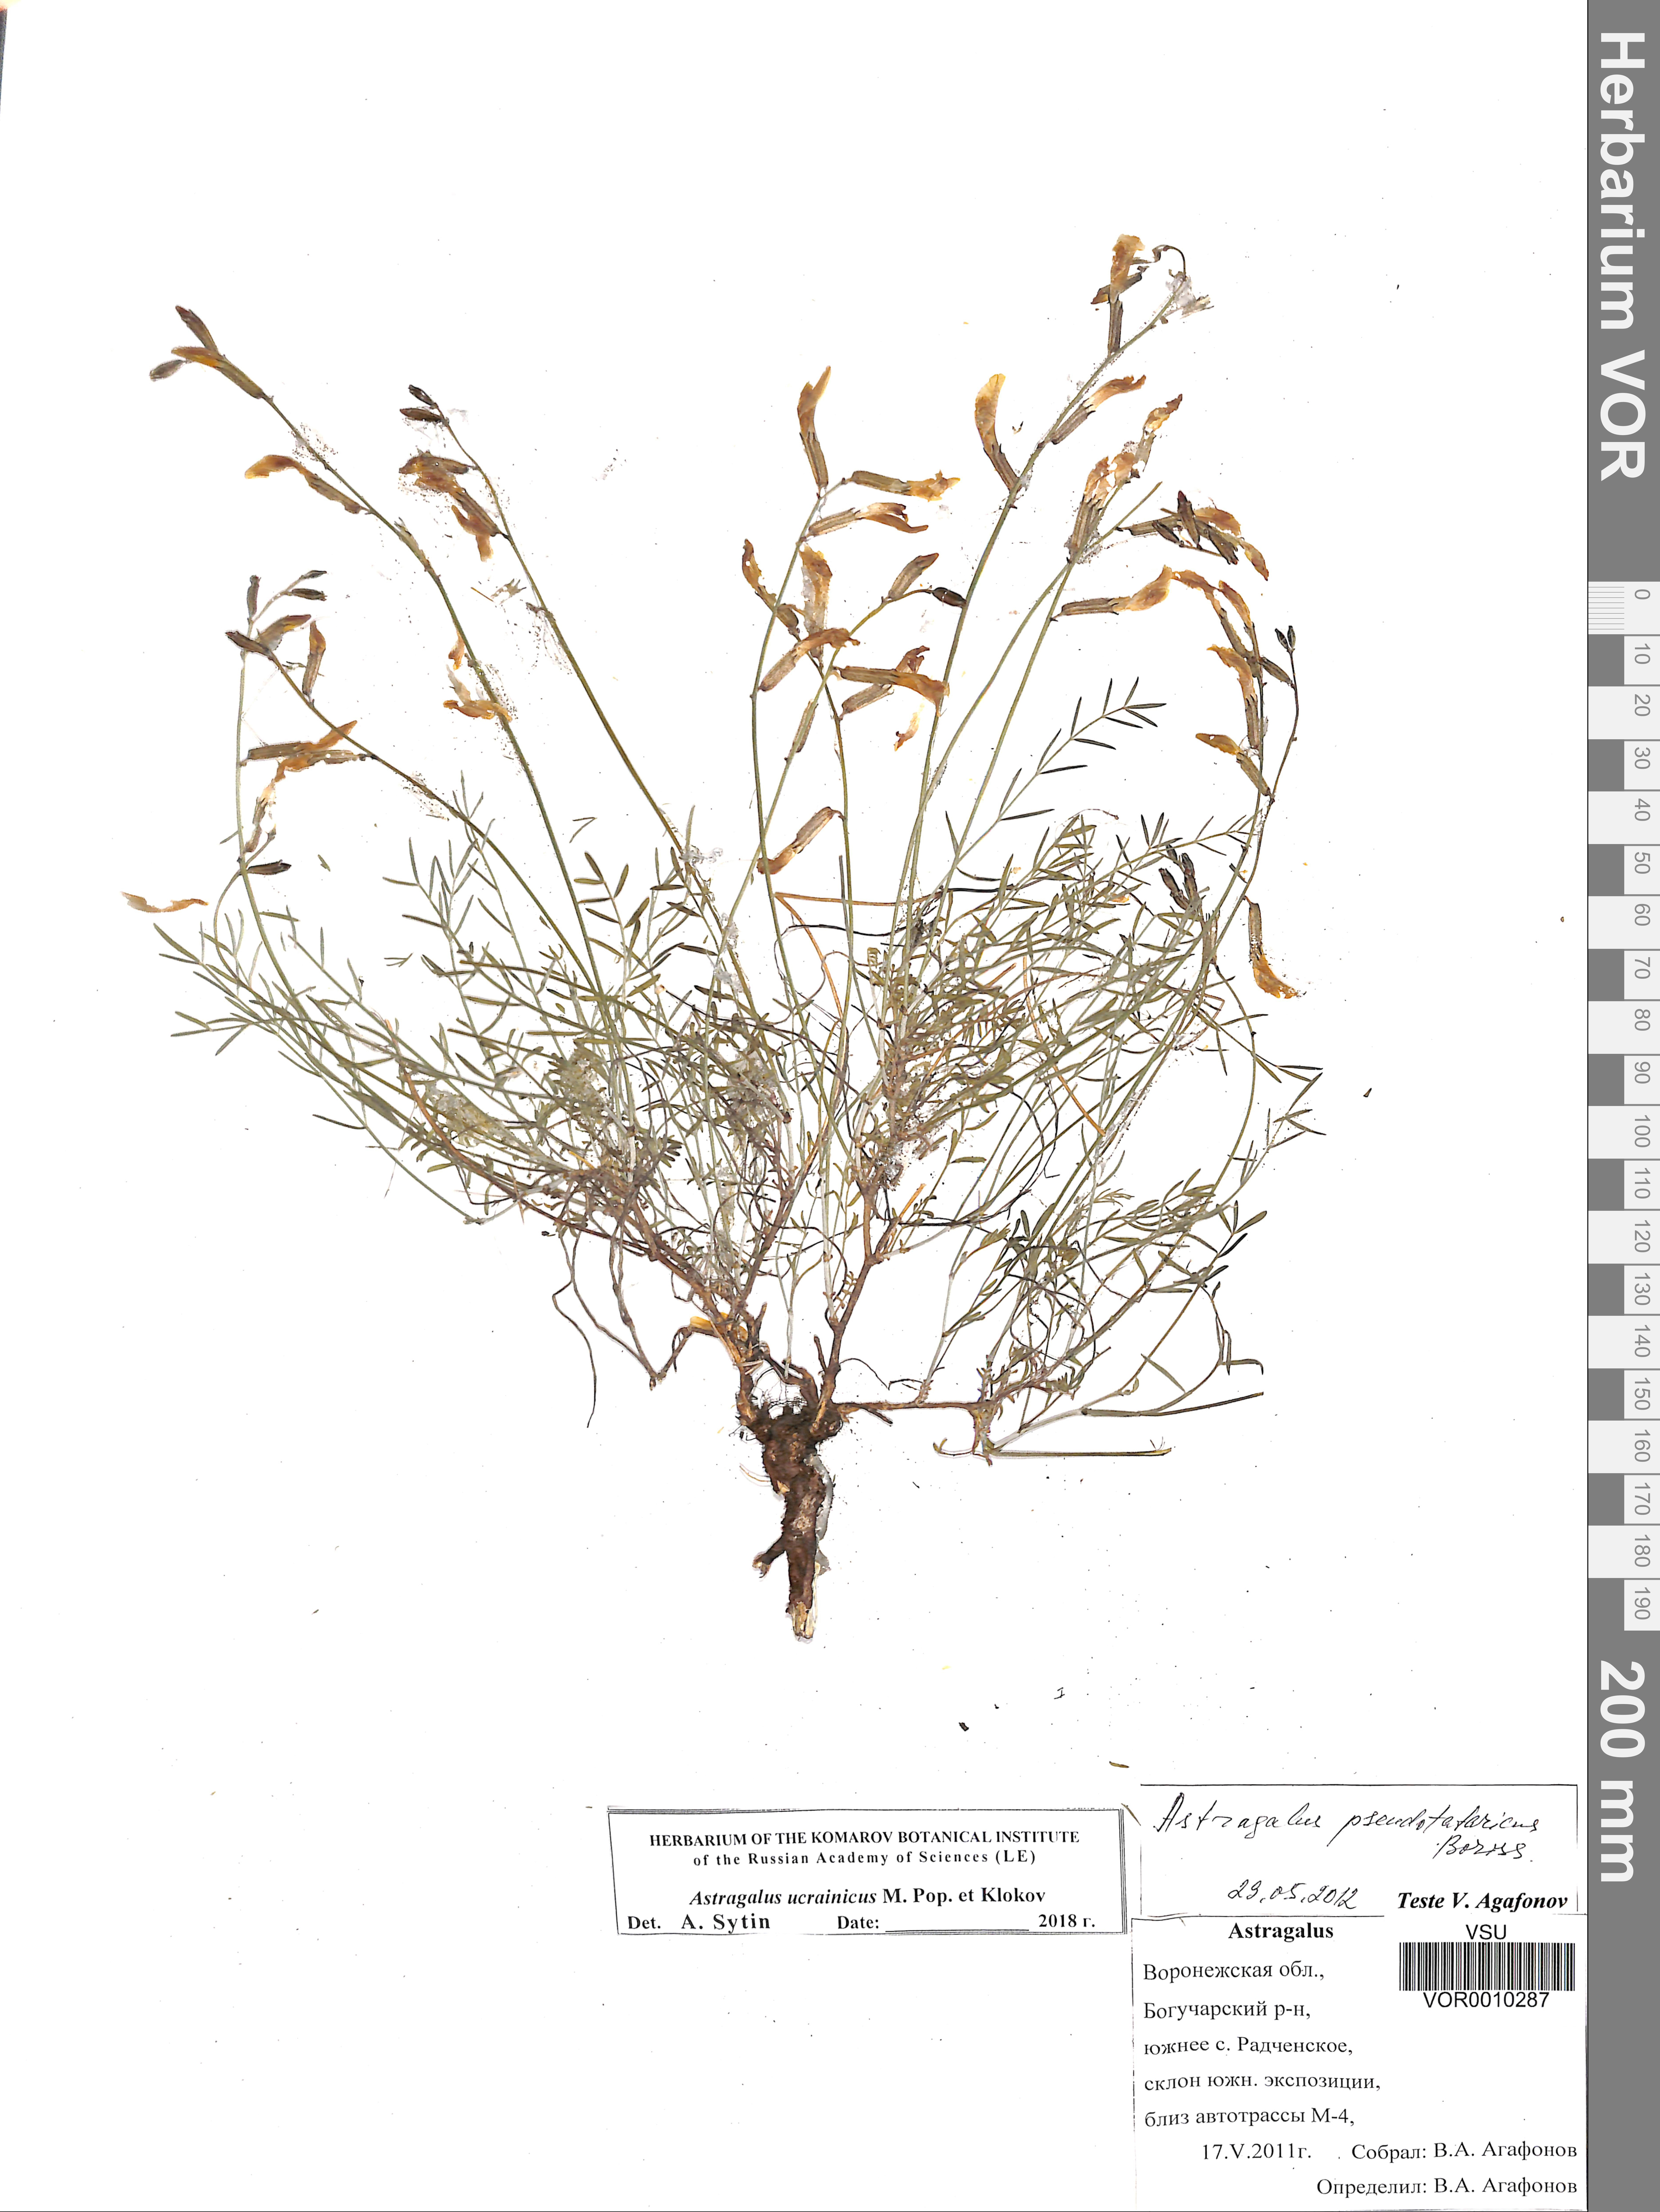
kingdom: Plantae
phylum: Tracheophyta
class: Magnoliopsida
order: Fabales
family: Fabaceae
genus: Astragalus
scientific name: Astragalus ucrainicus
